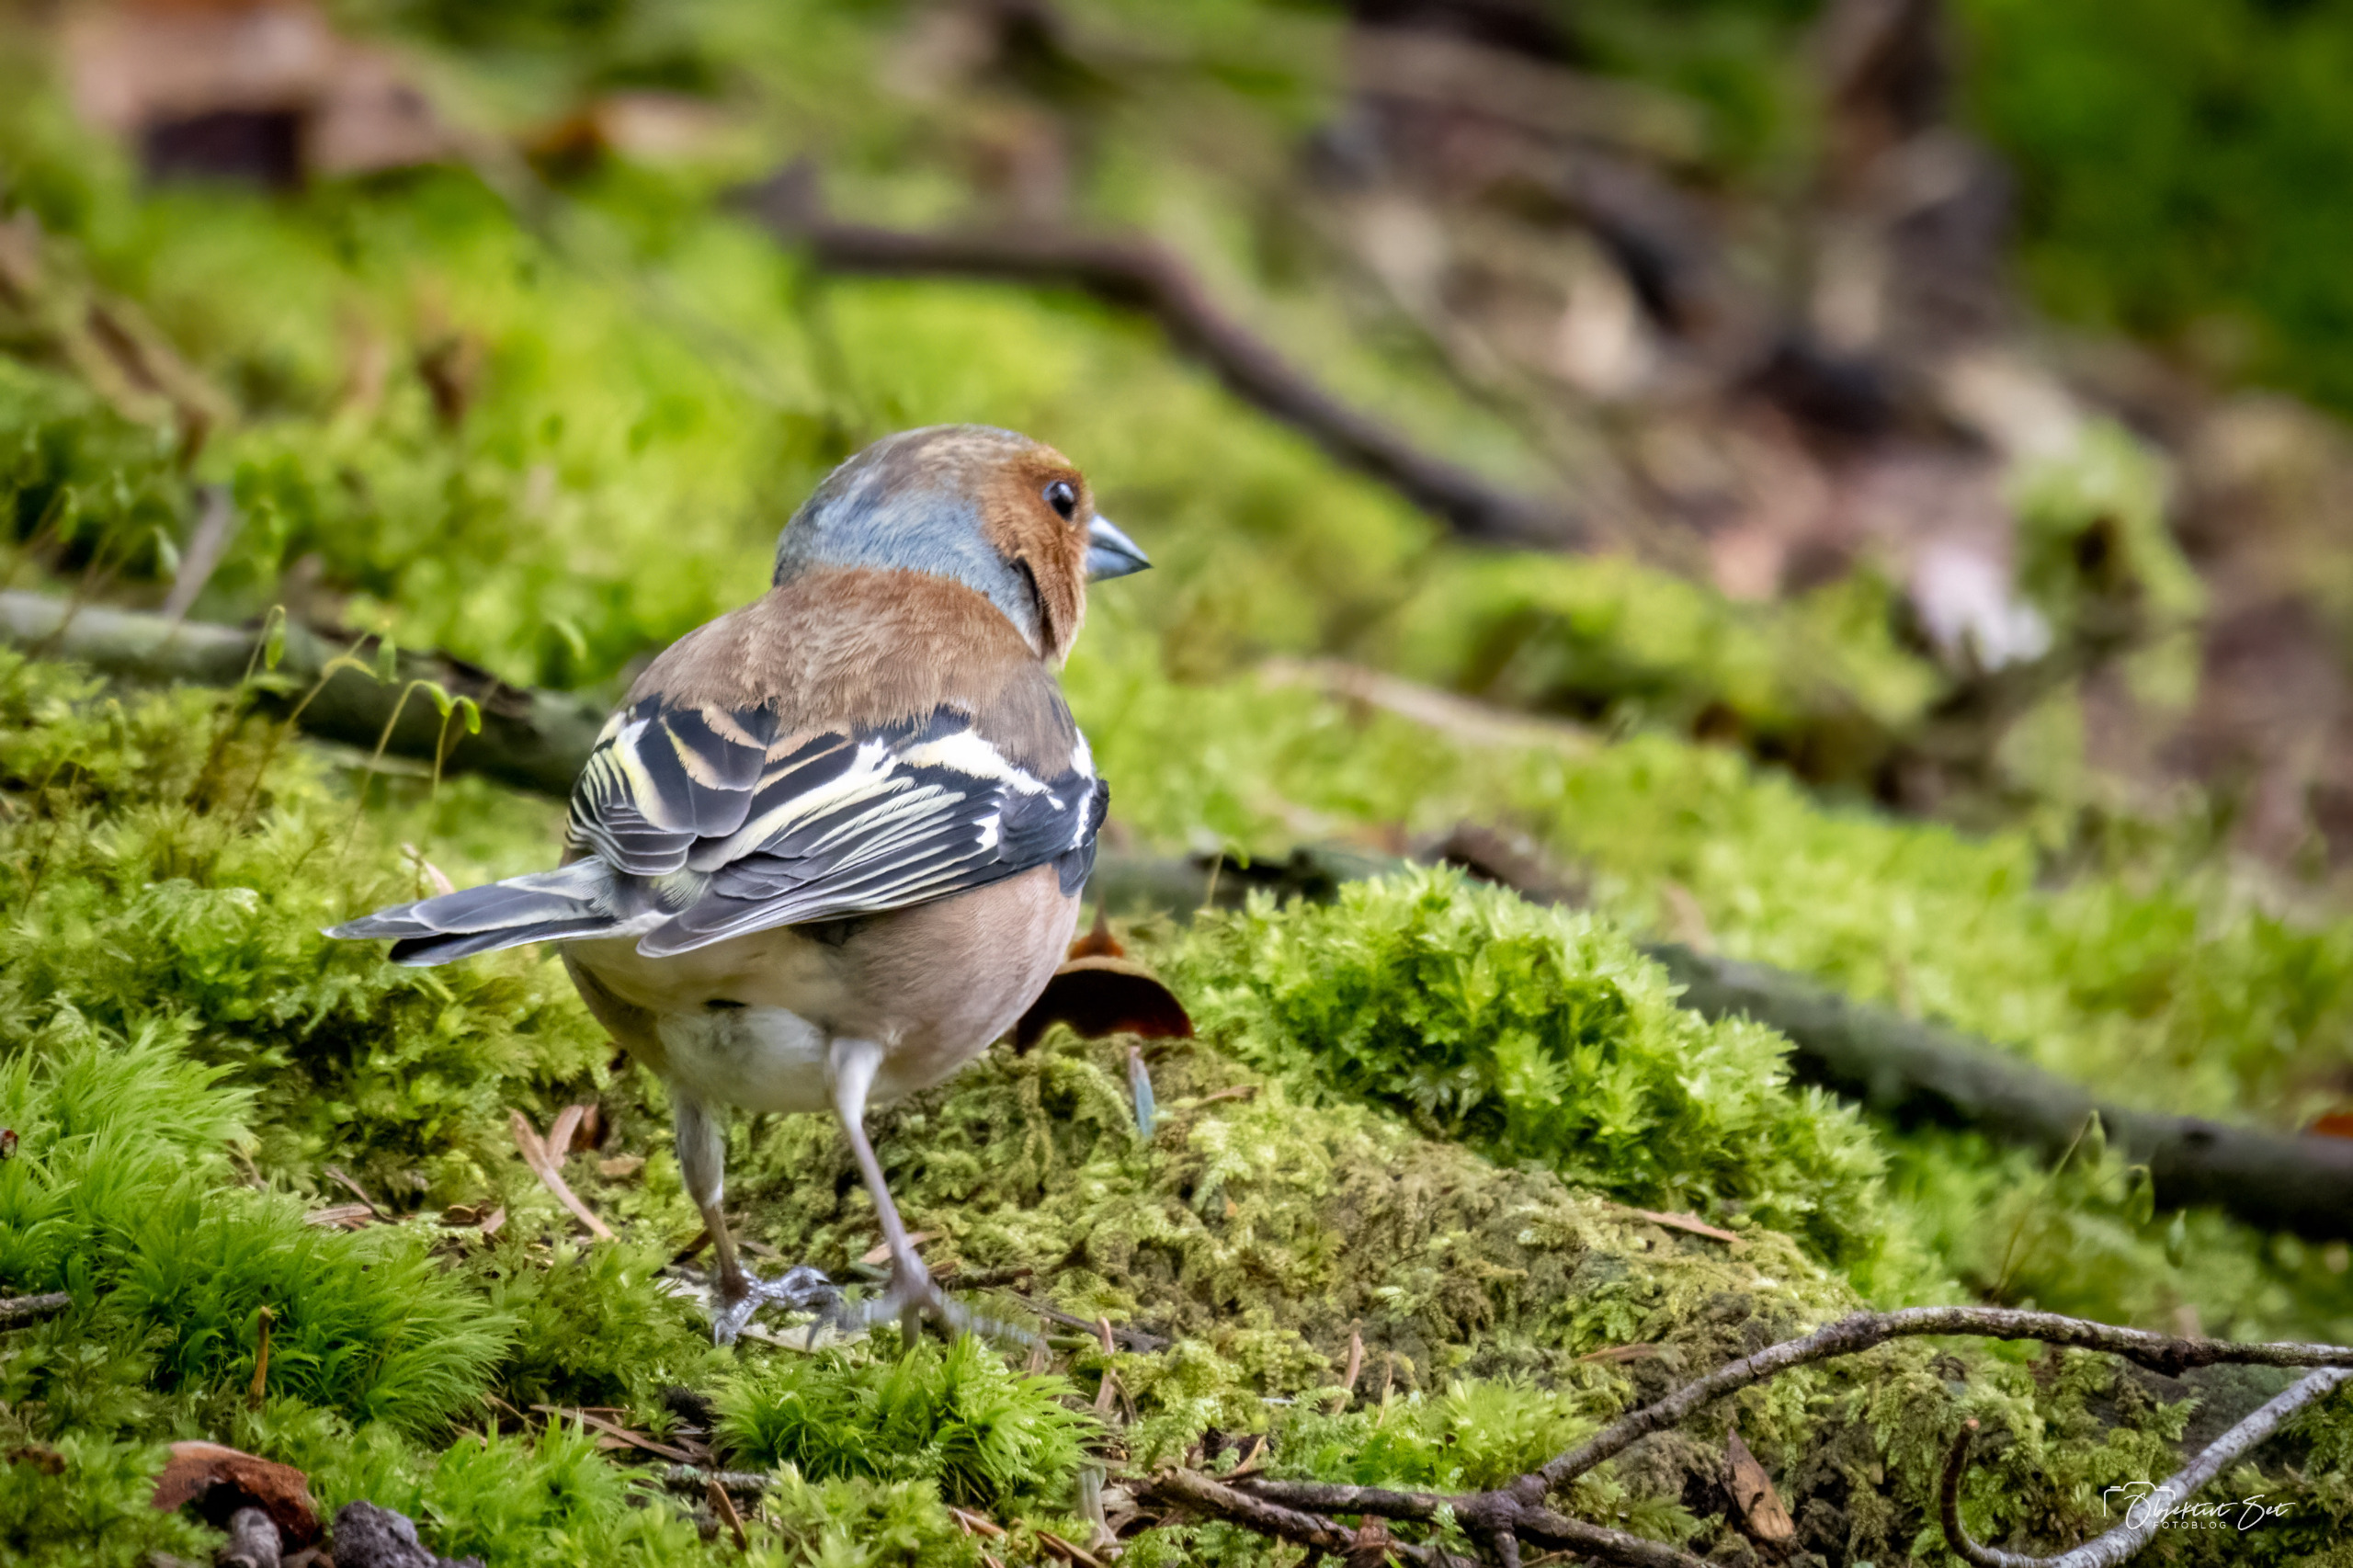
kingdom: Animalia
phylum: Chordata
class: Aves
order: Passeriformes
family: Fringillidae
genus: Fringilla
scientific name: Fringilla coelebs
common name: Bogfinke
